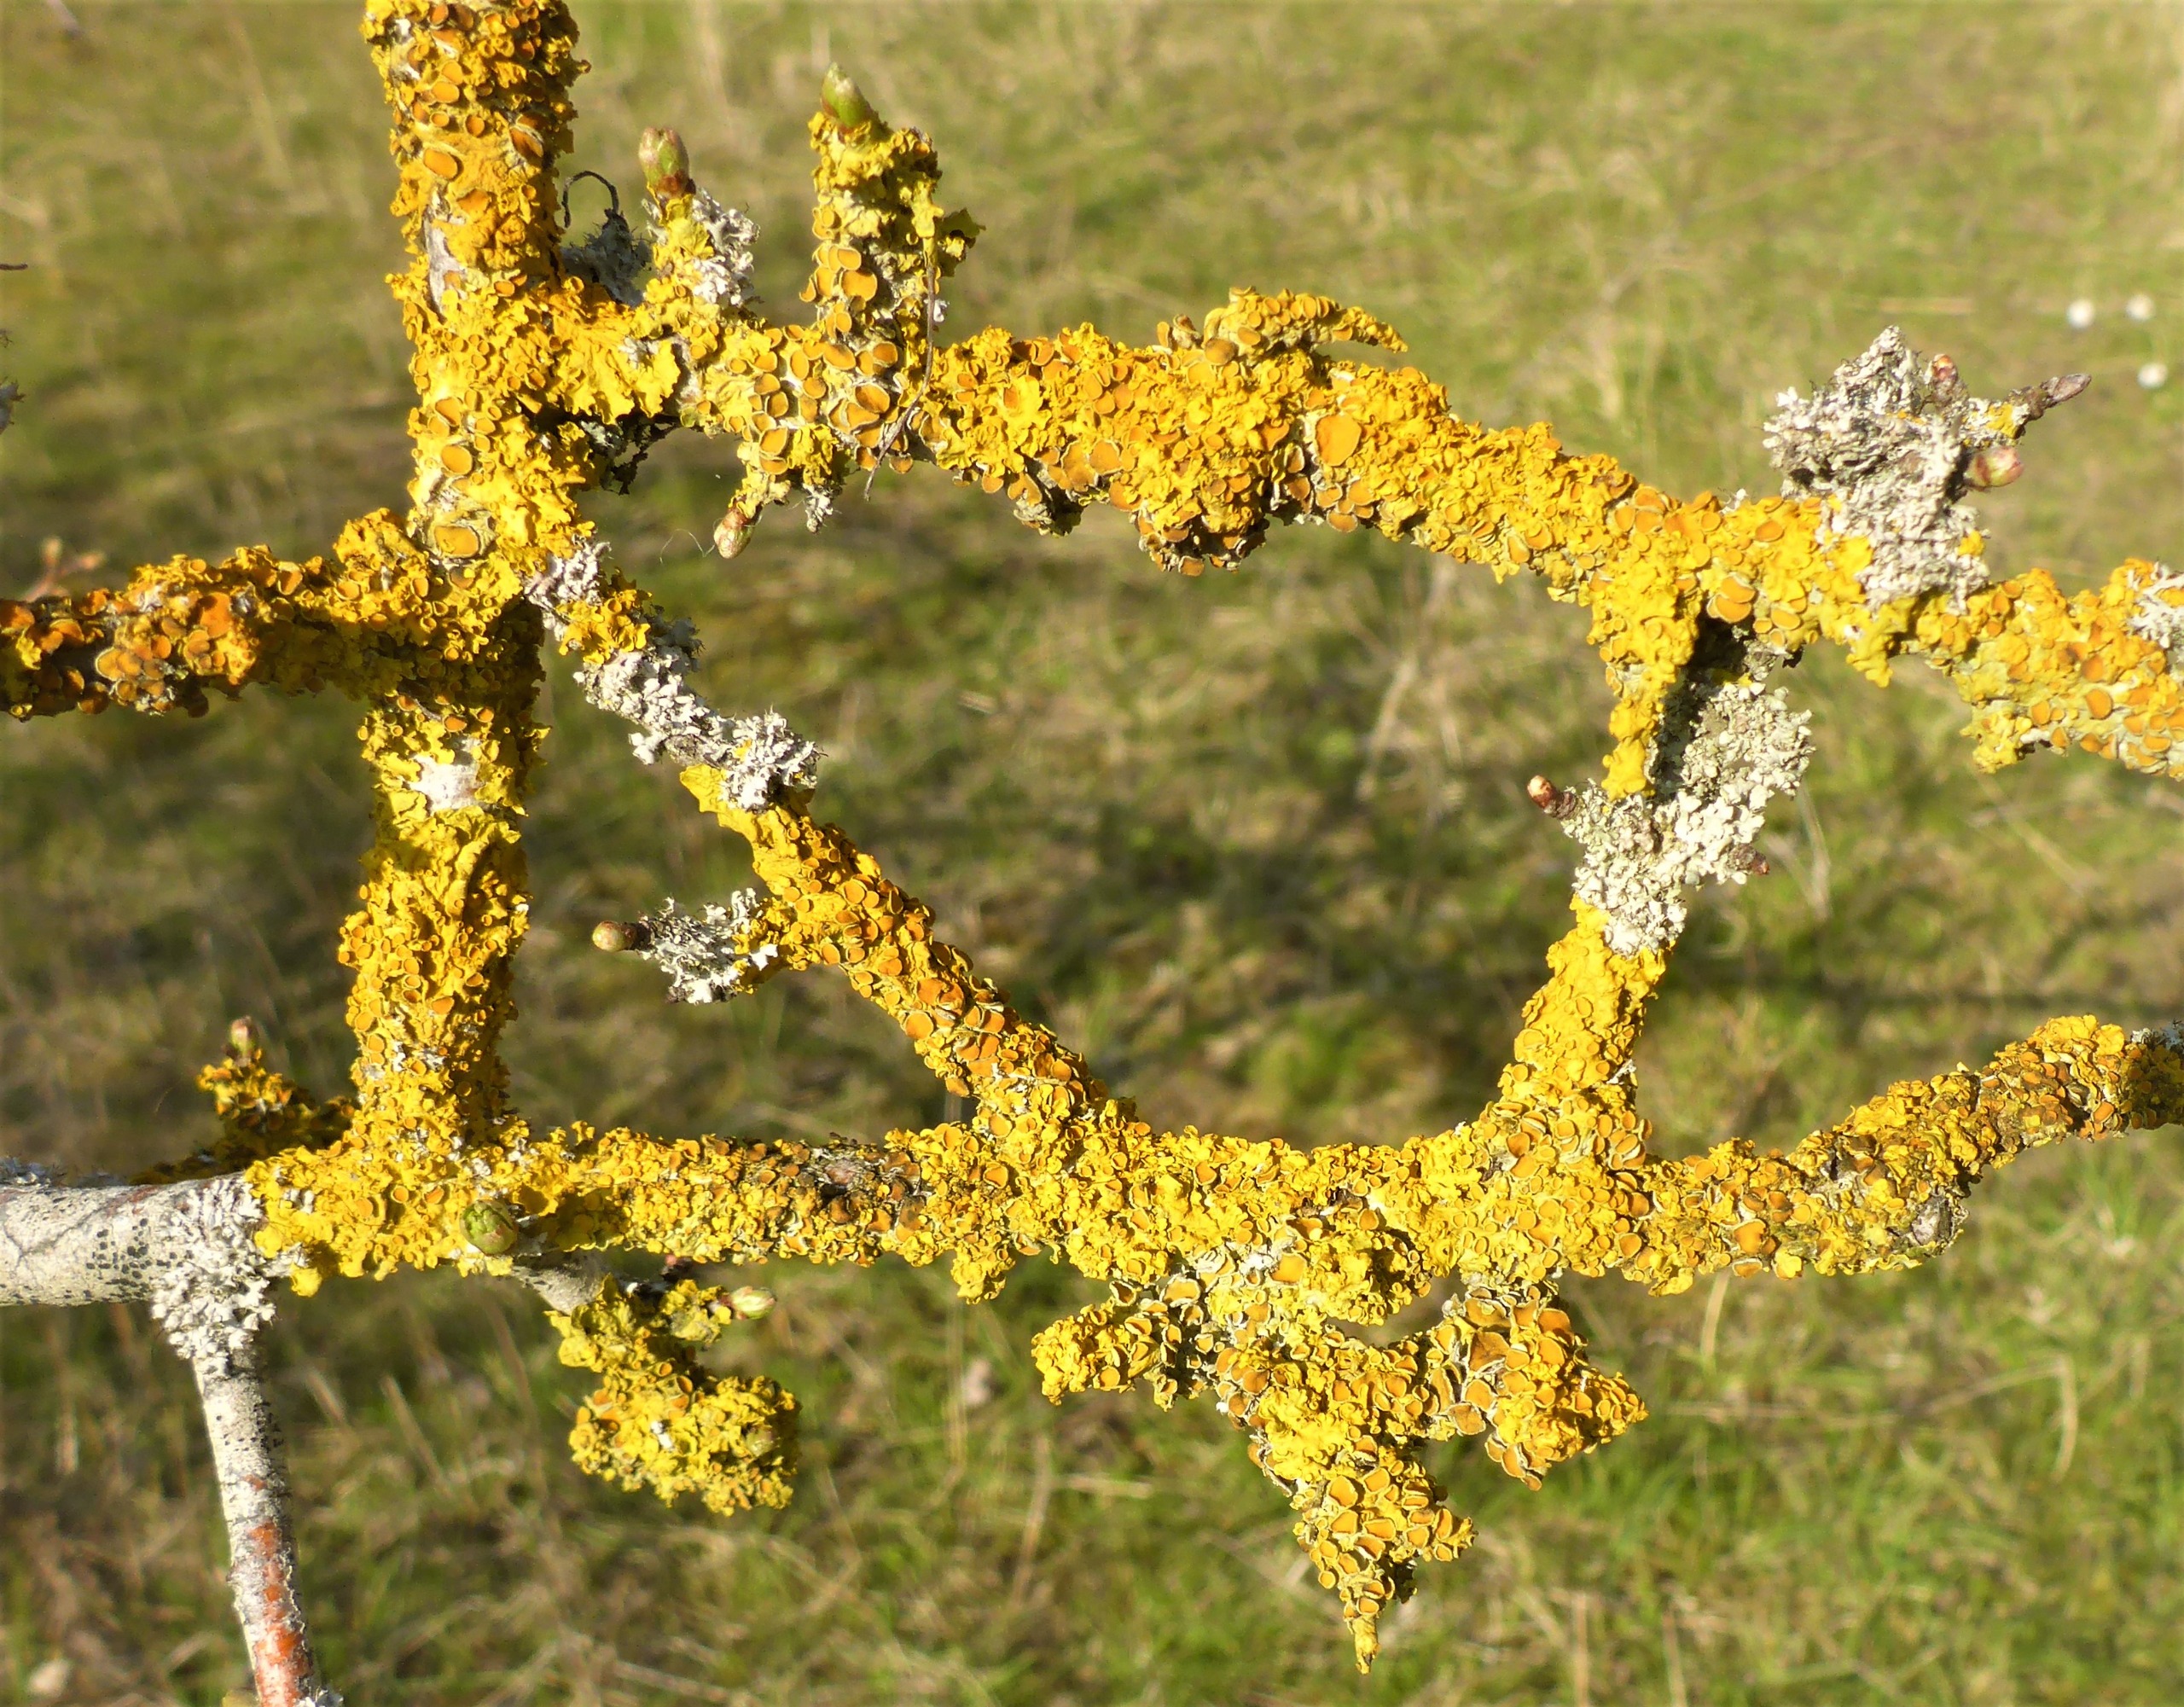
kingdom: Fungi
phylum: Ascomycota
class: Lecanoromycetes
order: Teloschistales
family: Teloschistaceae
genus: Xanthoria
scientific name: Xanthoria parietina
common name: Almindelig væggelav
